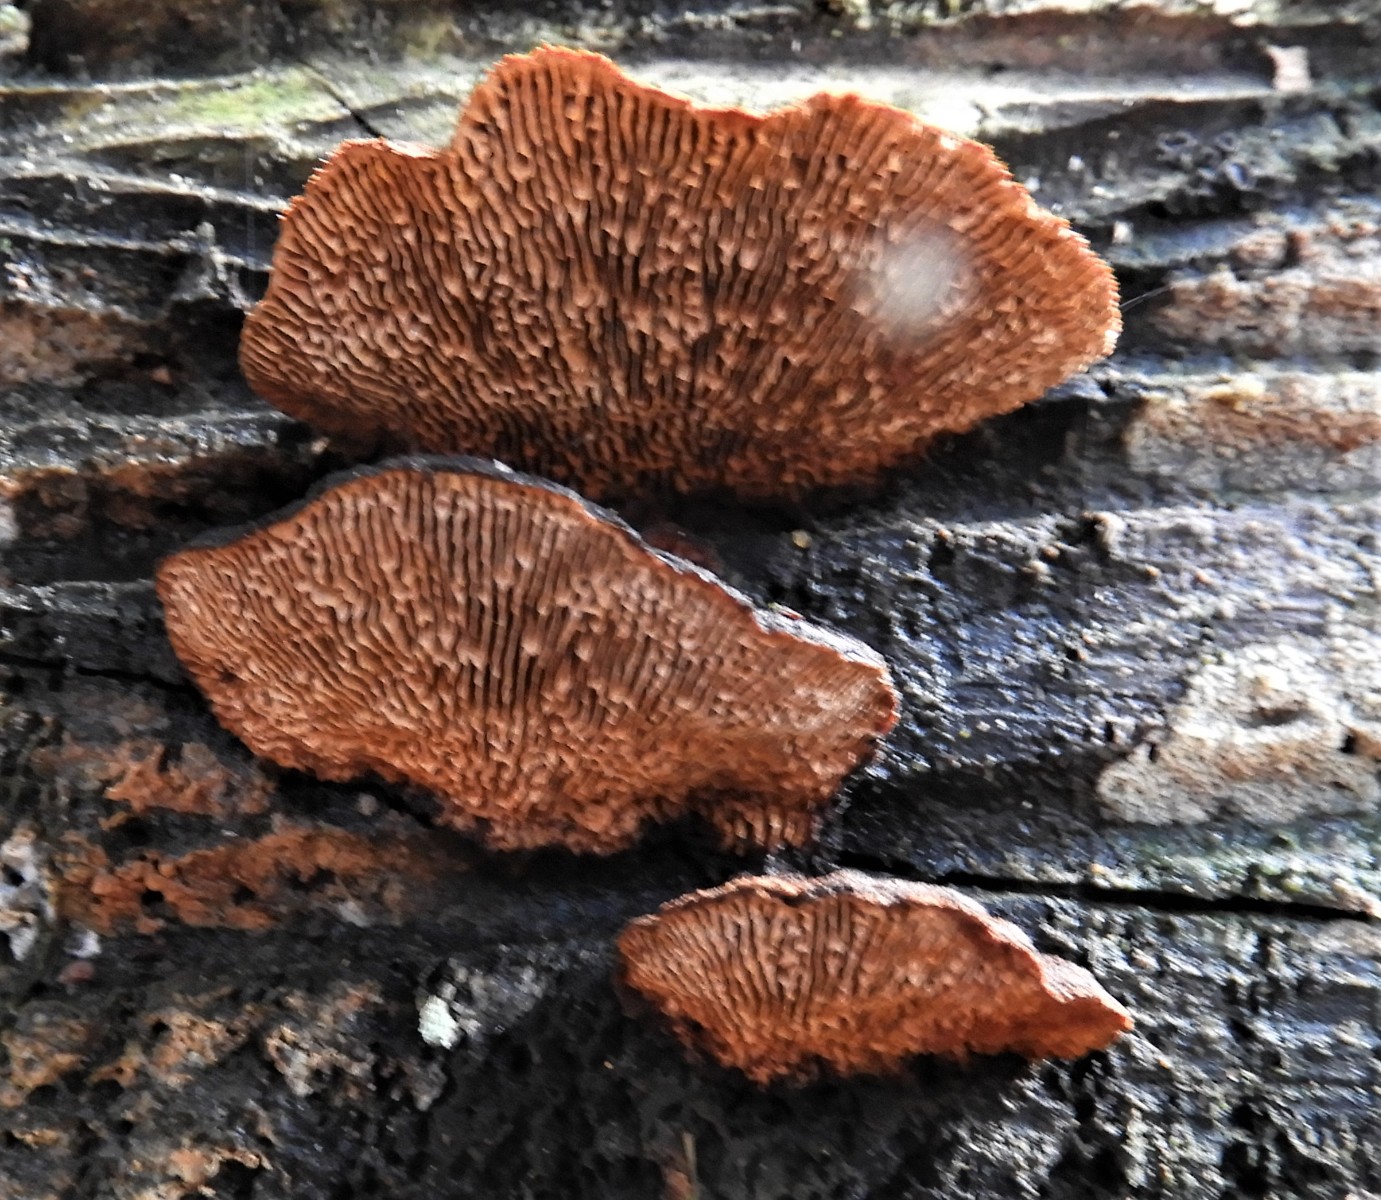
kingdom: Fungi
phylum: Basidiomycota
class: Agaricomycetes
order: Gloeophyllales
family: Gloeophyllaceae
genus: Gloeophyllum
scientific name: Gloeophyllum sepiarium
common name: fyrre-korkhat
